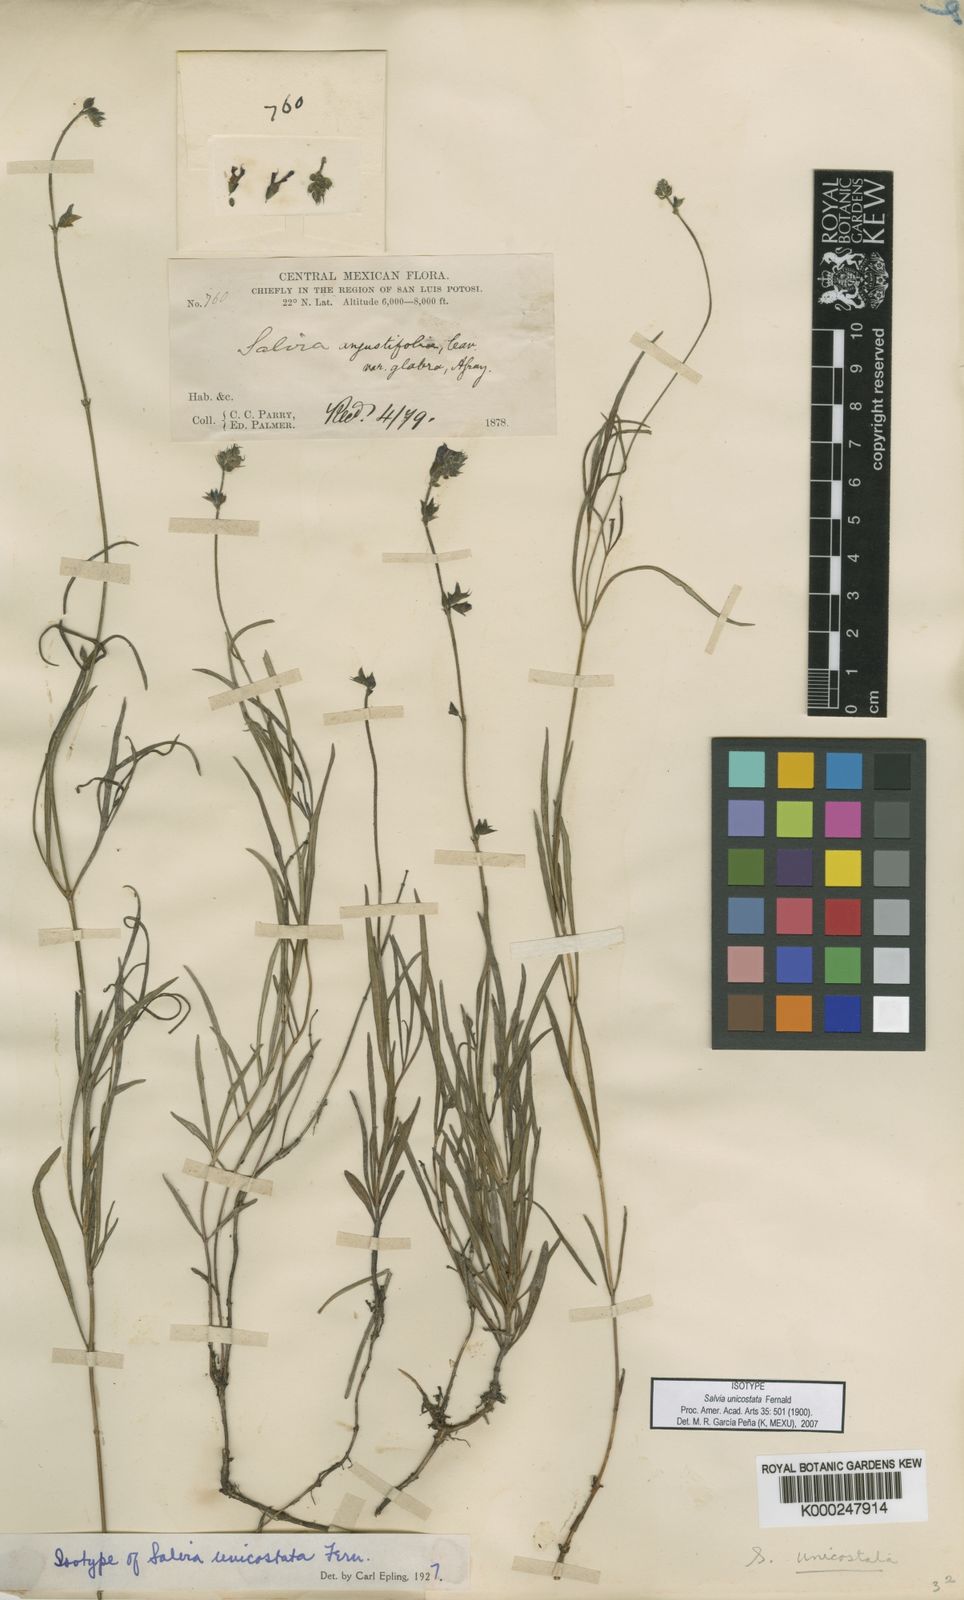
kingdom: Plantae
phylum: Tracheophyta
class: Magnoliopsida
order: Lamiales
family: Lamiaceae
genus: Salvia
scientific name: Salvia unicostata
